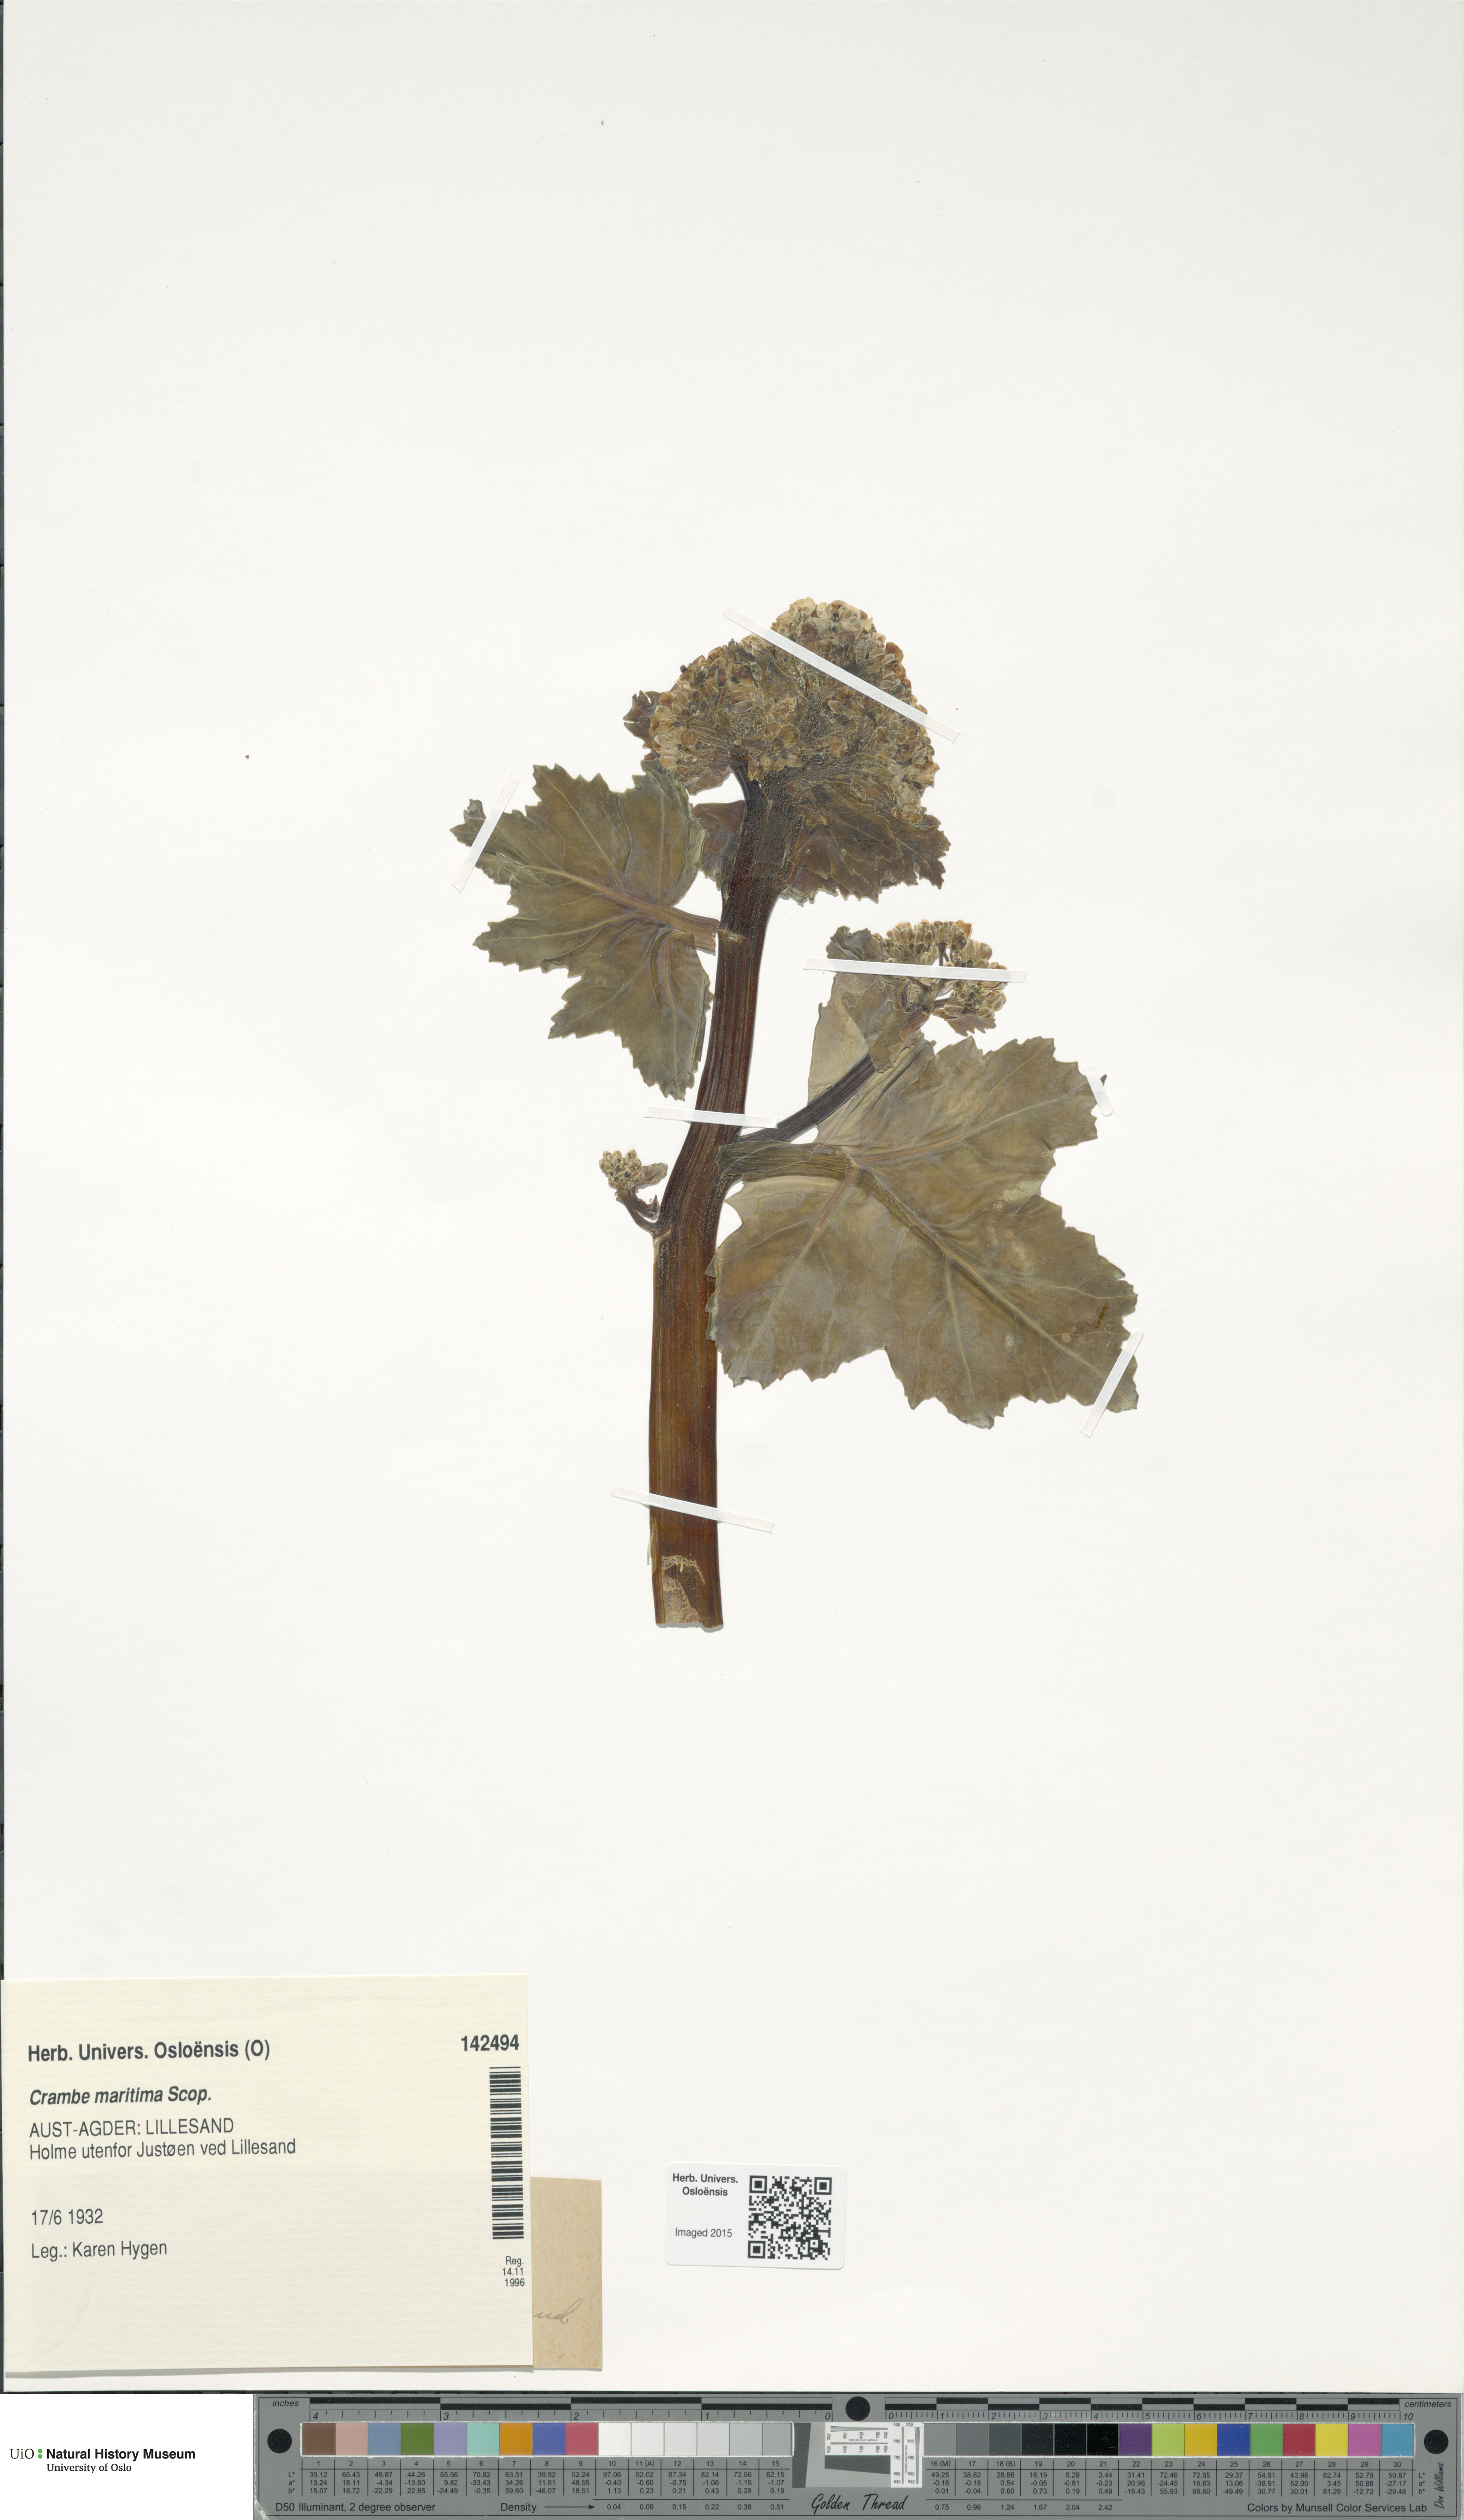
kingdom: Plantae
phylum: Tracheophyta
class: Magnoliopsida
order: Brassicales
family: Brassicaceae
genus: Crambe
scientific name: Crambe maritima
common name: Sea-kale
